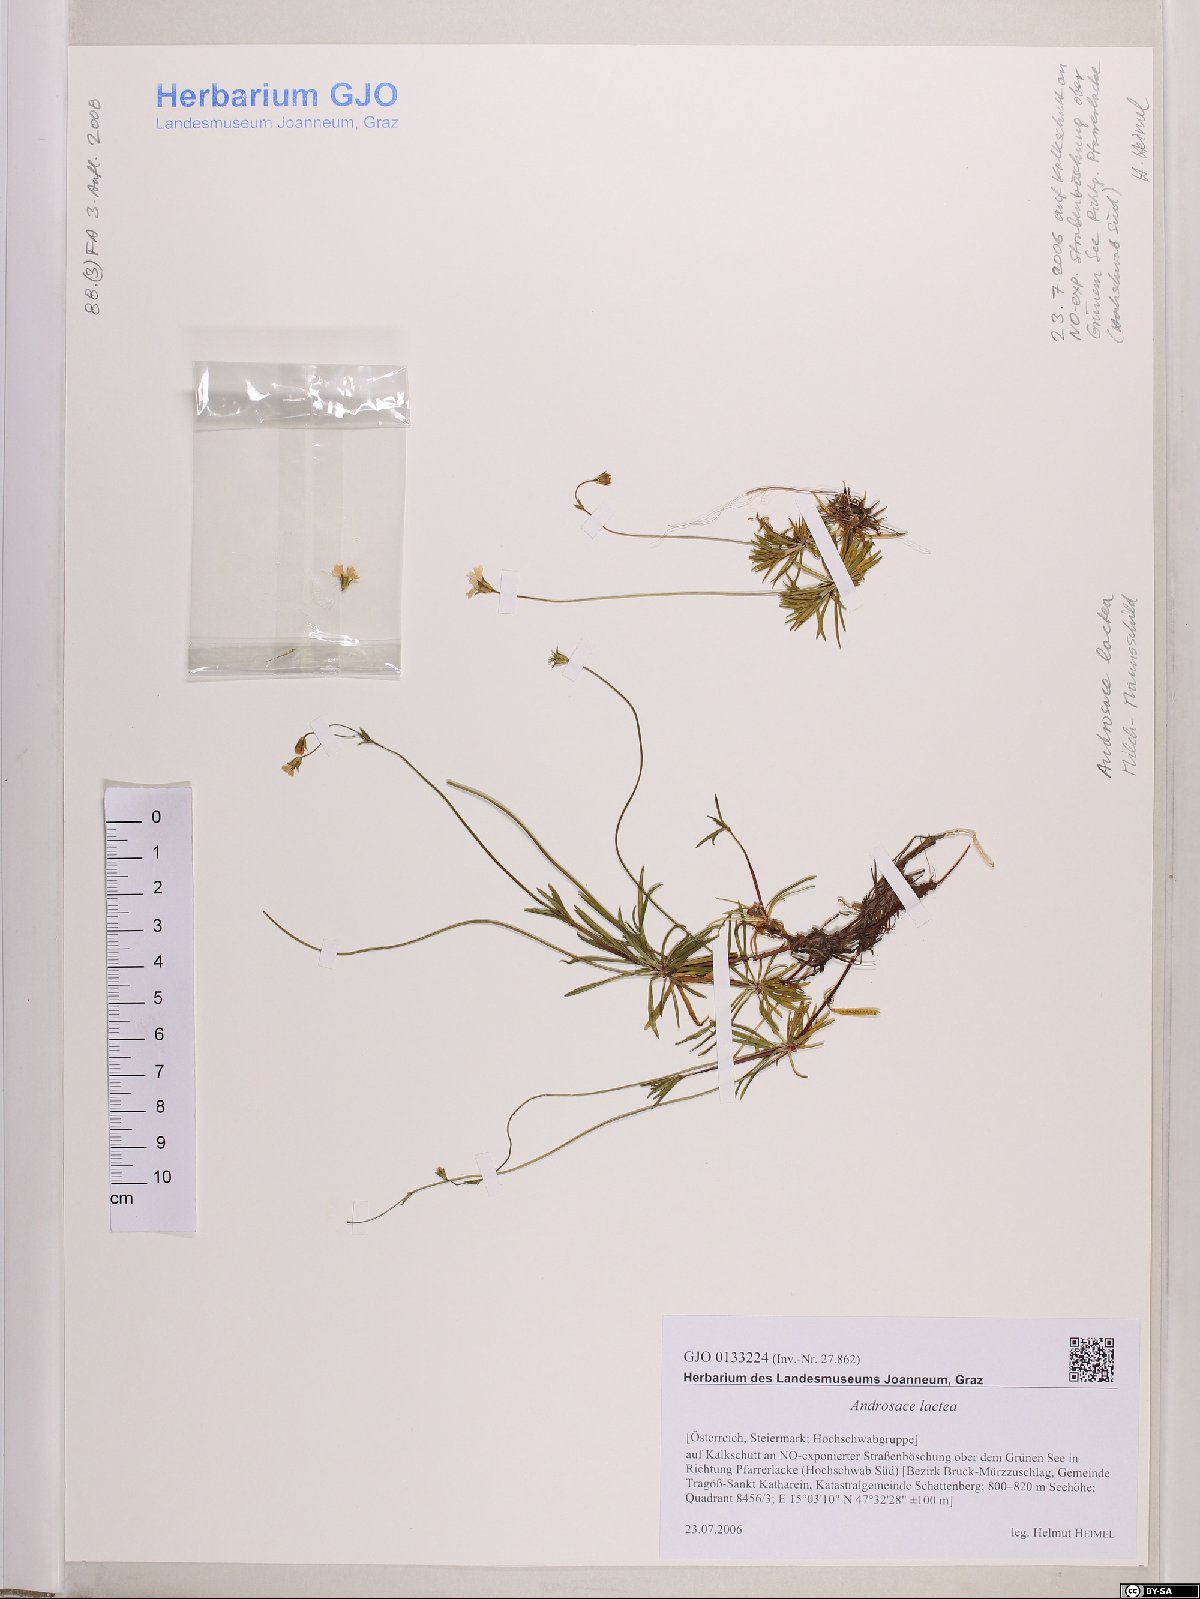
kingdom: Plantae
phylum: Tracheophyta
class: Magnoliopsida
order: Ericales
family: Primulaceae
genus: Androsace
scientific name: Androsace lactea
